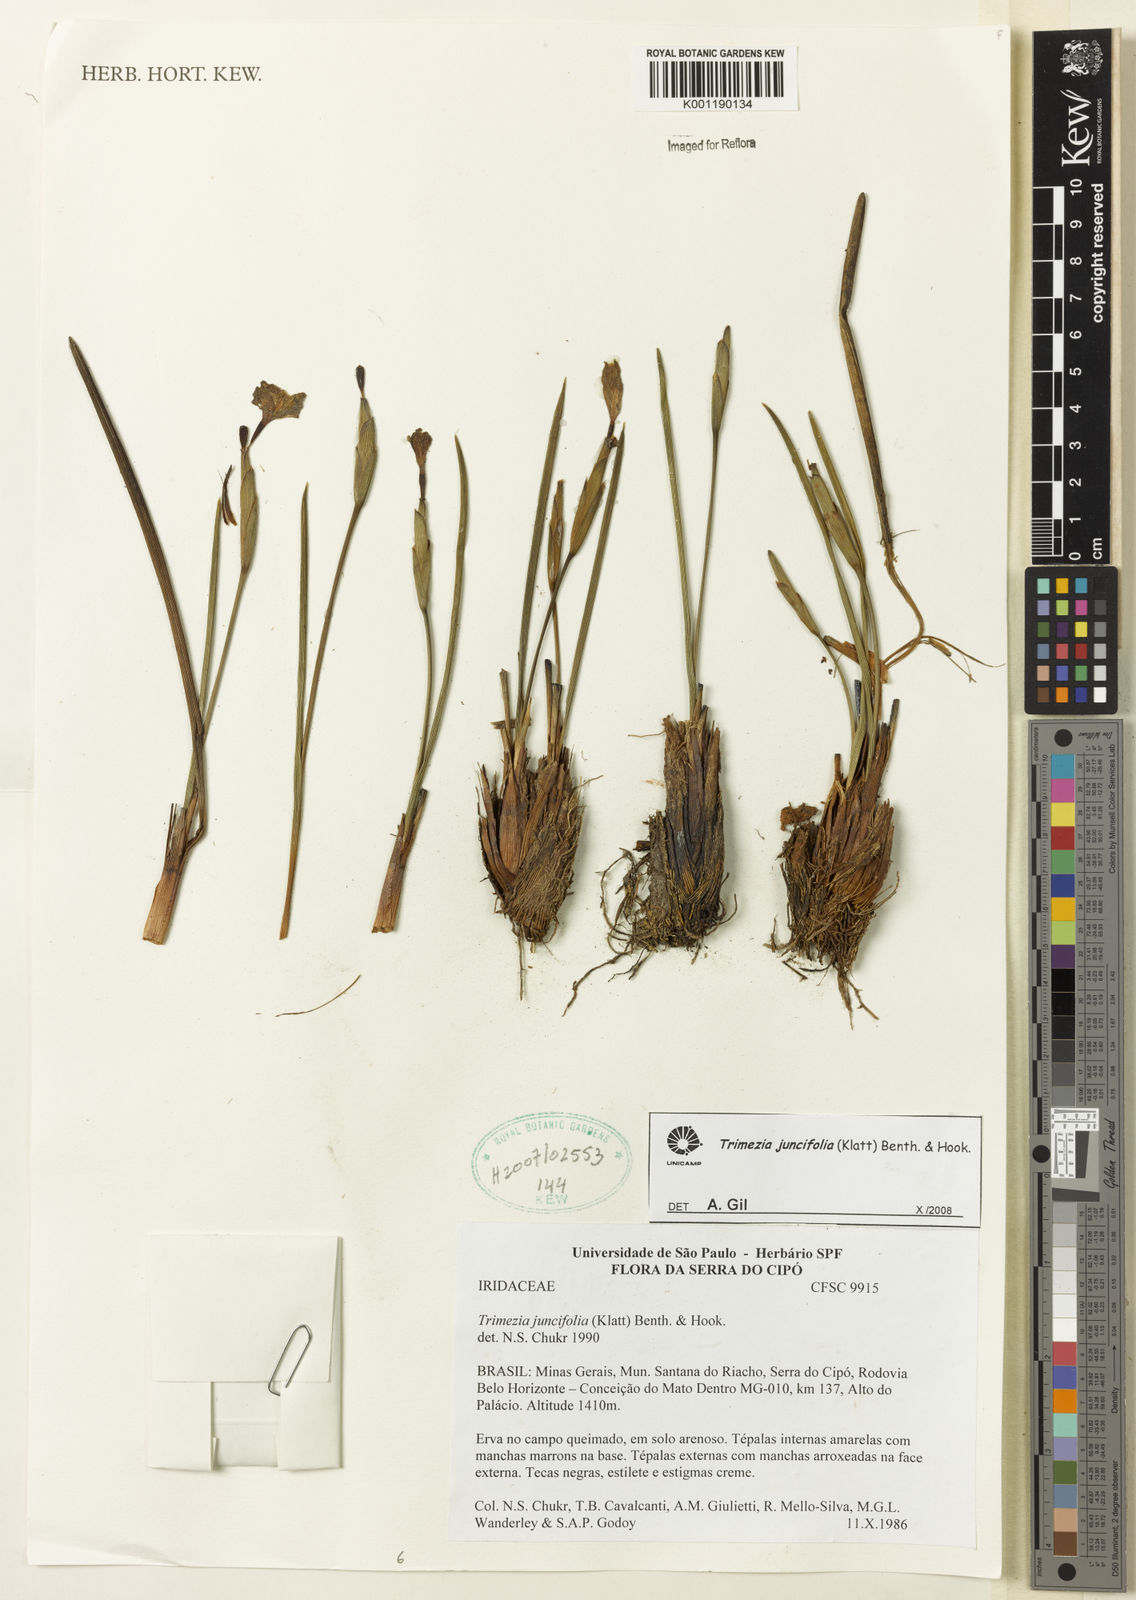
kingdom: Plantae
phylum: Tracheophyta
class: Liliopsida
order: Asparagales
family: Iridaceae
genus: Trimezia
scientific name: Trimezia juncifolia
